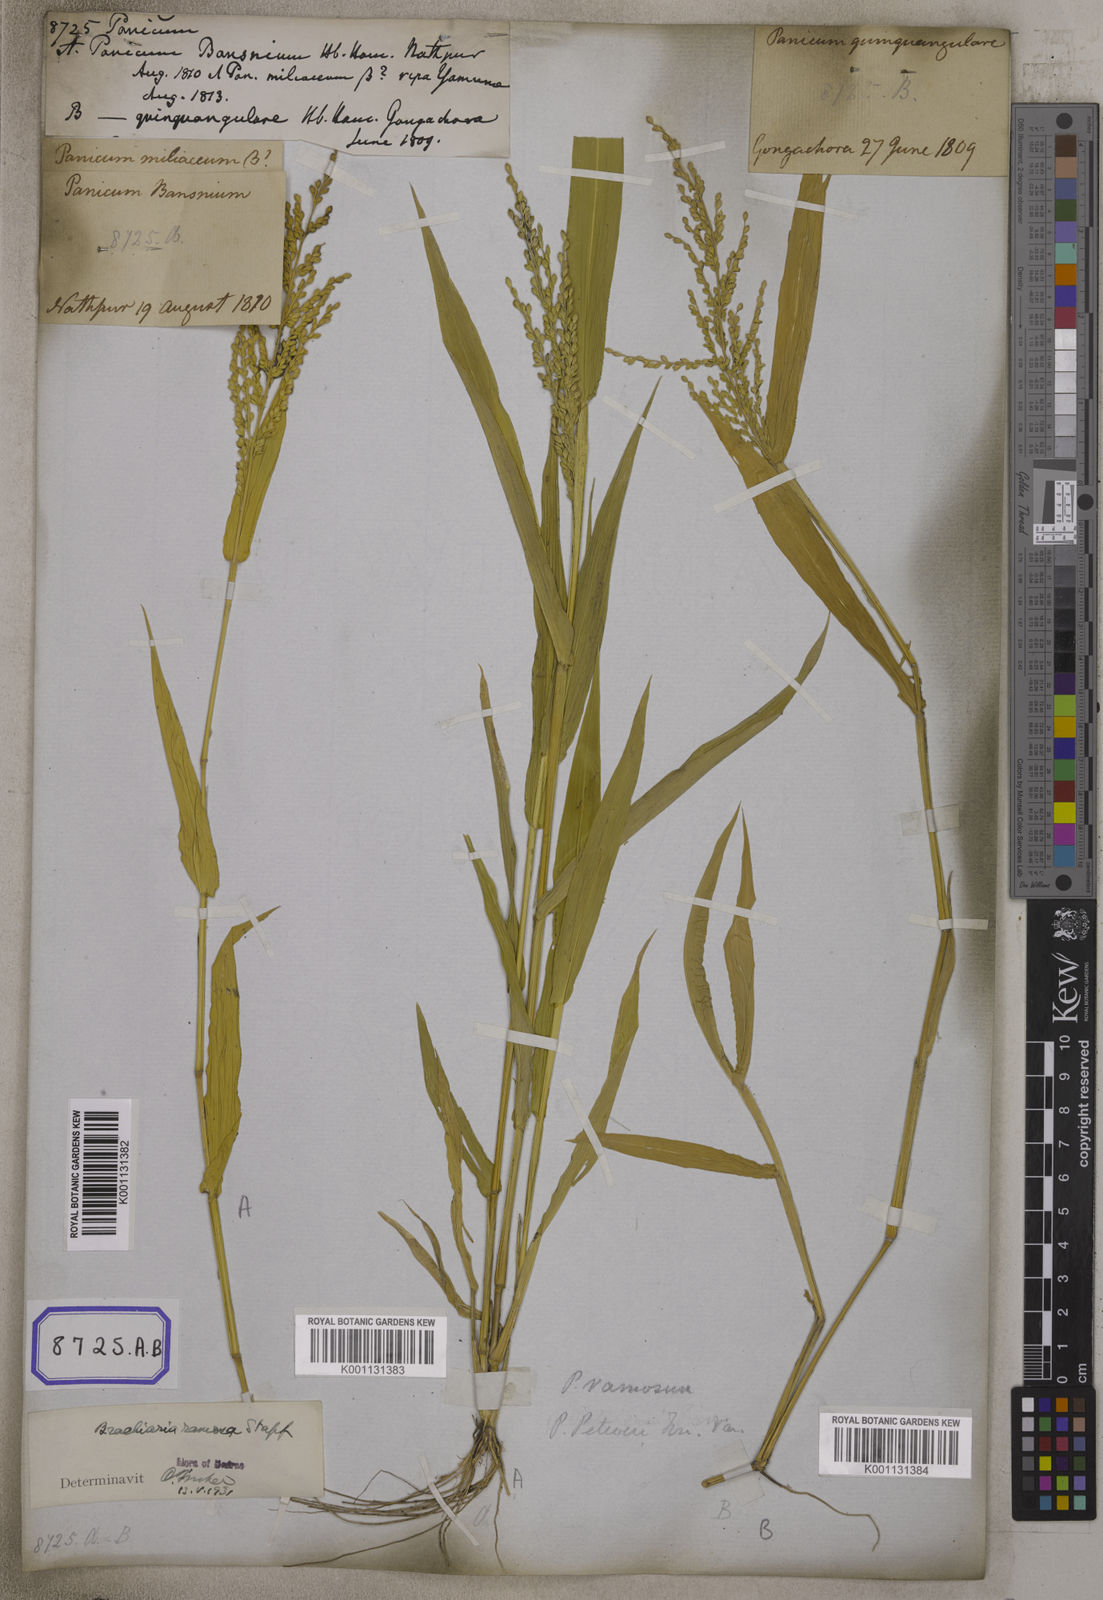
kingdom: Plantae
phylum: Tracheophyta
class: Liliopsida
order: Poales
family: Poaceae
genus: Panicum
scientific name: Panicum
